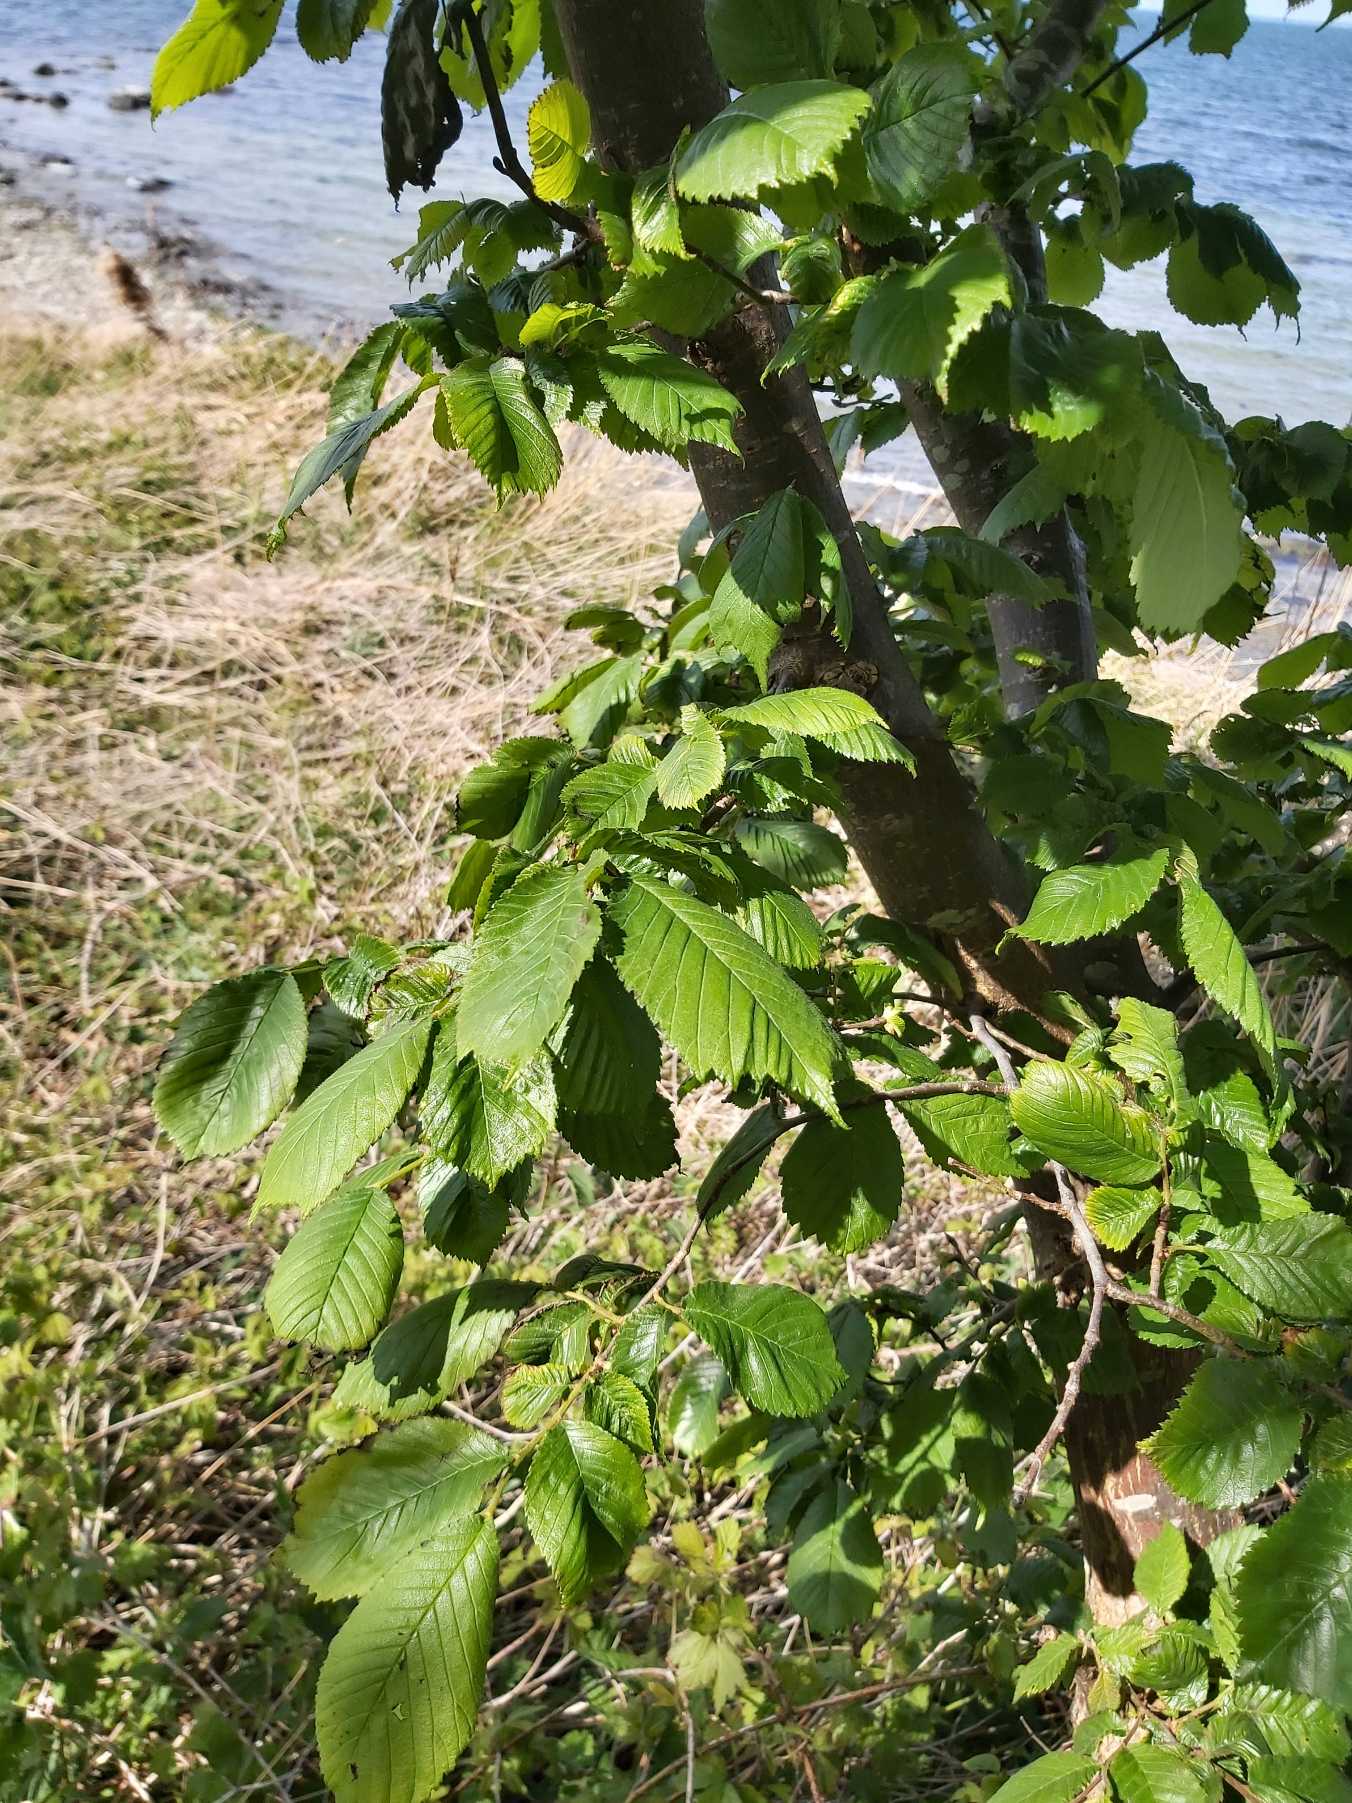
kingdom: Plantae
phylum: Tracheophyta
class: Magnoliopsida
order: Rosales
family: Ulmaceae
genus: Ulmus
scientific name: Ulmus glabra
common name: Skov-elm/storbladet elm
